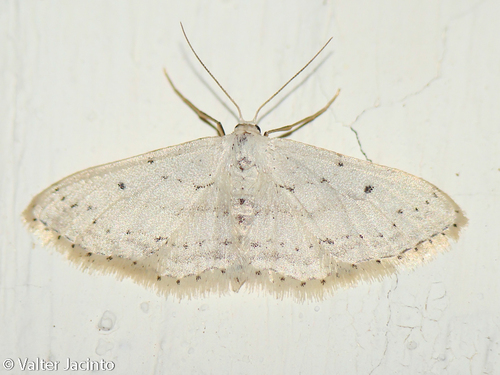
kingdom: Animalia
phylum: Arthropoda
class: Insecta
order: Lepidoptera
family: Geometridae
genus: Idaea
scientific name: Idaea seriata
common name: Small dusty wave
